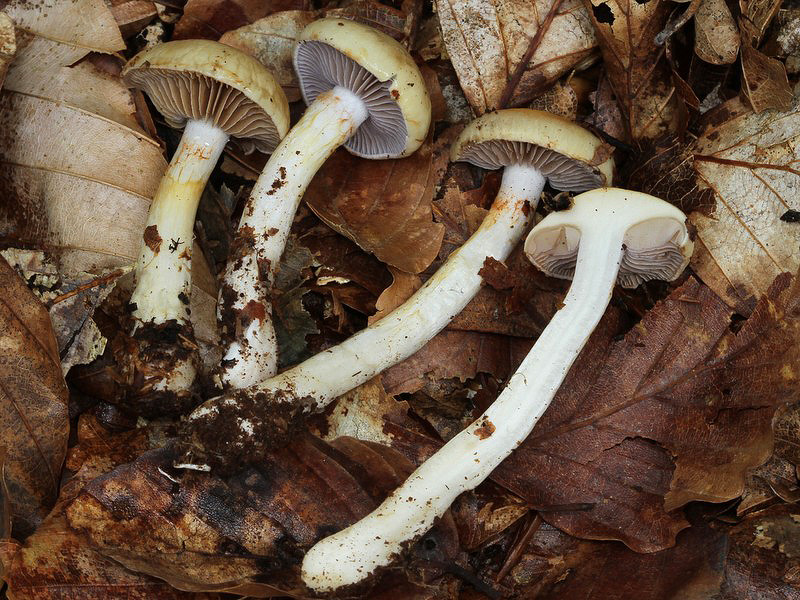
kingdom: Fungi
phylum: Basidiomycota
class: Agaricomycetes
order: Agaricales
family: Cortinariaceae
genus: Cortinarius
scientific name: Cortinarius delibutus
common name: gul slørhat
